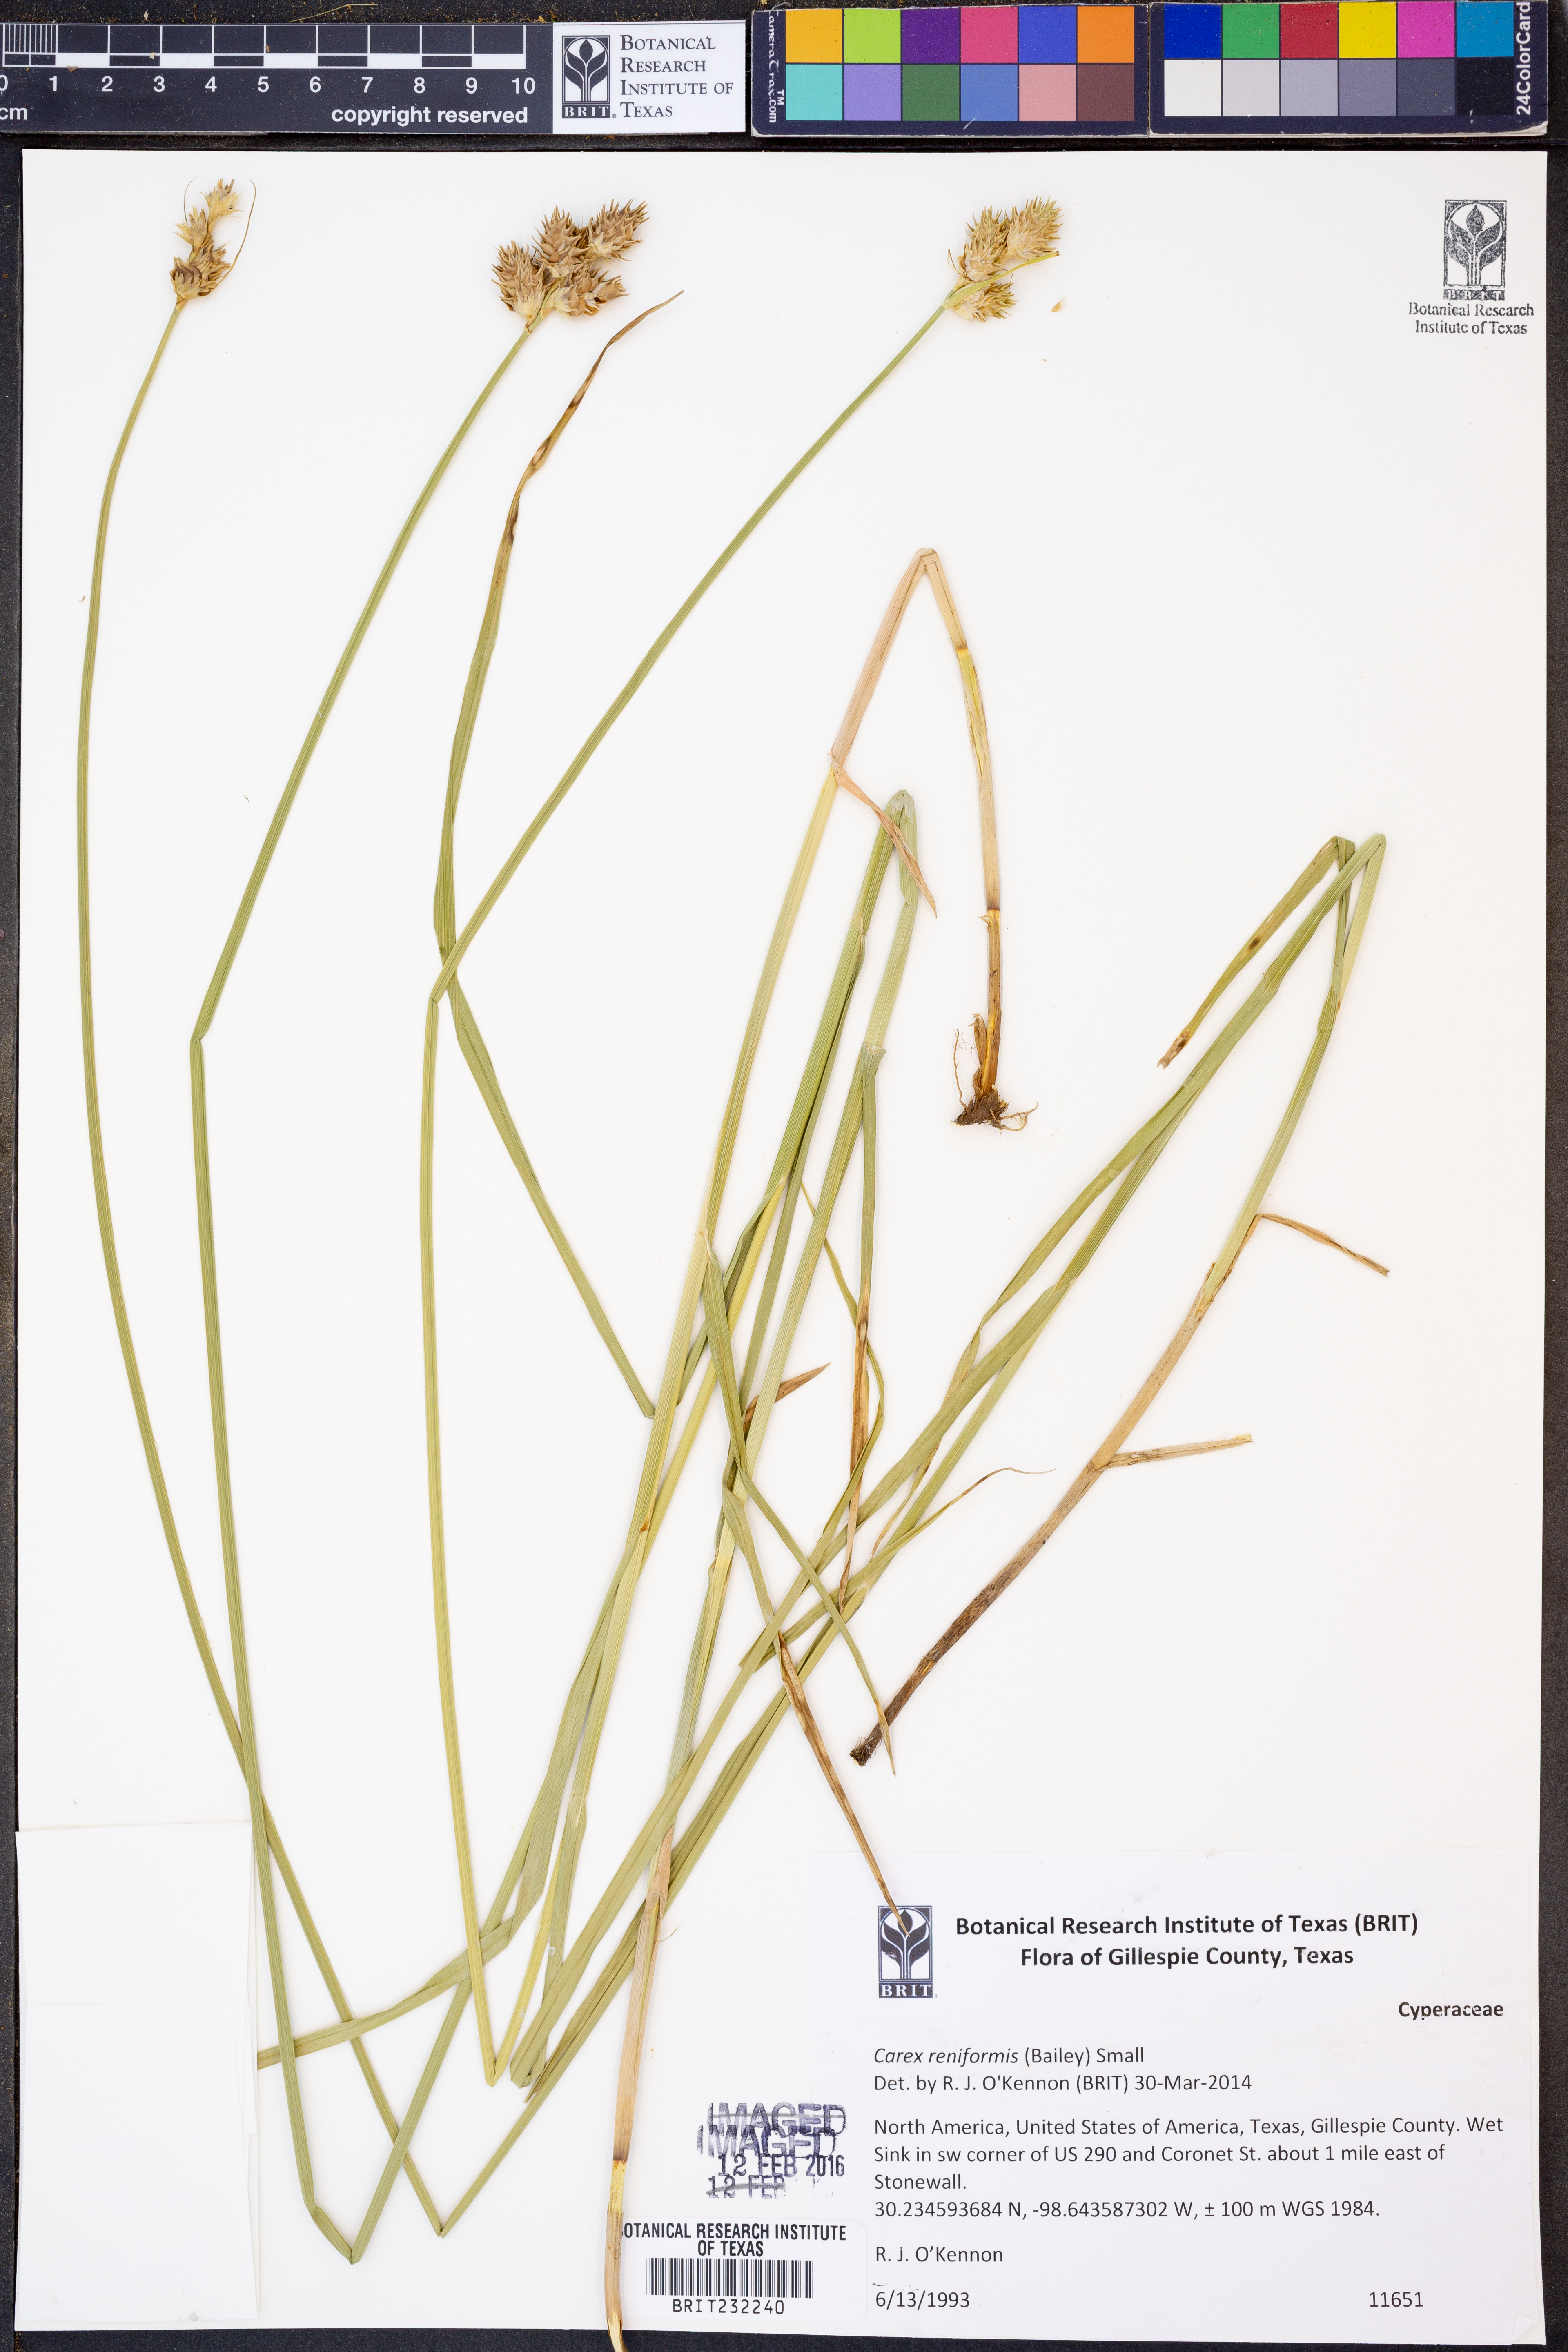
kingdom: Plantae
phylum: Tracheophyta
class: Liliopsida
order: Poales
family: Cyperaceae
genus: Carex
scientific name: Carex reniformis
